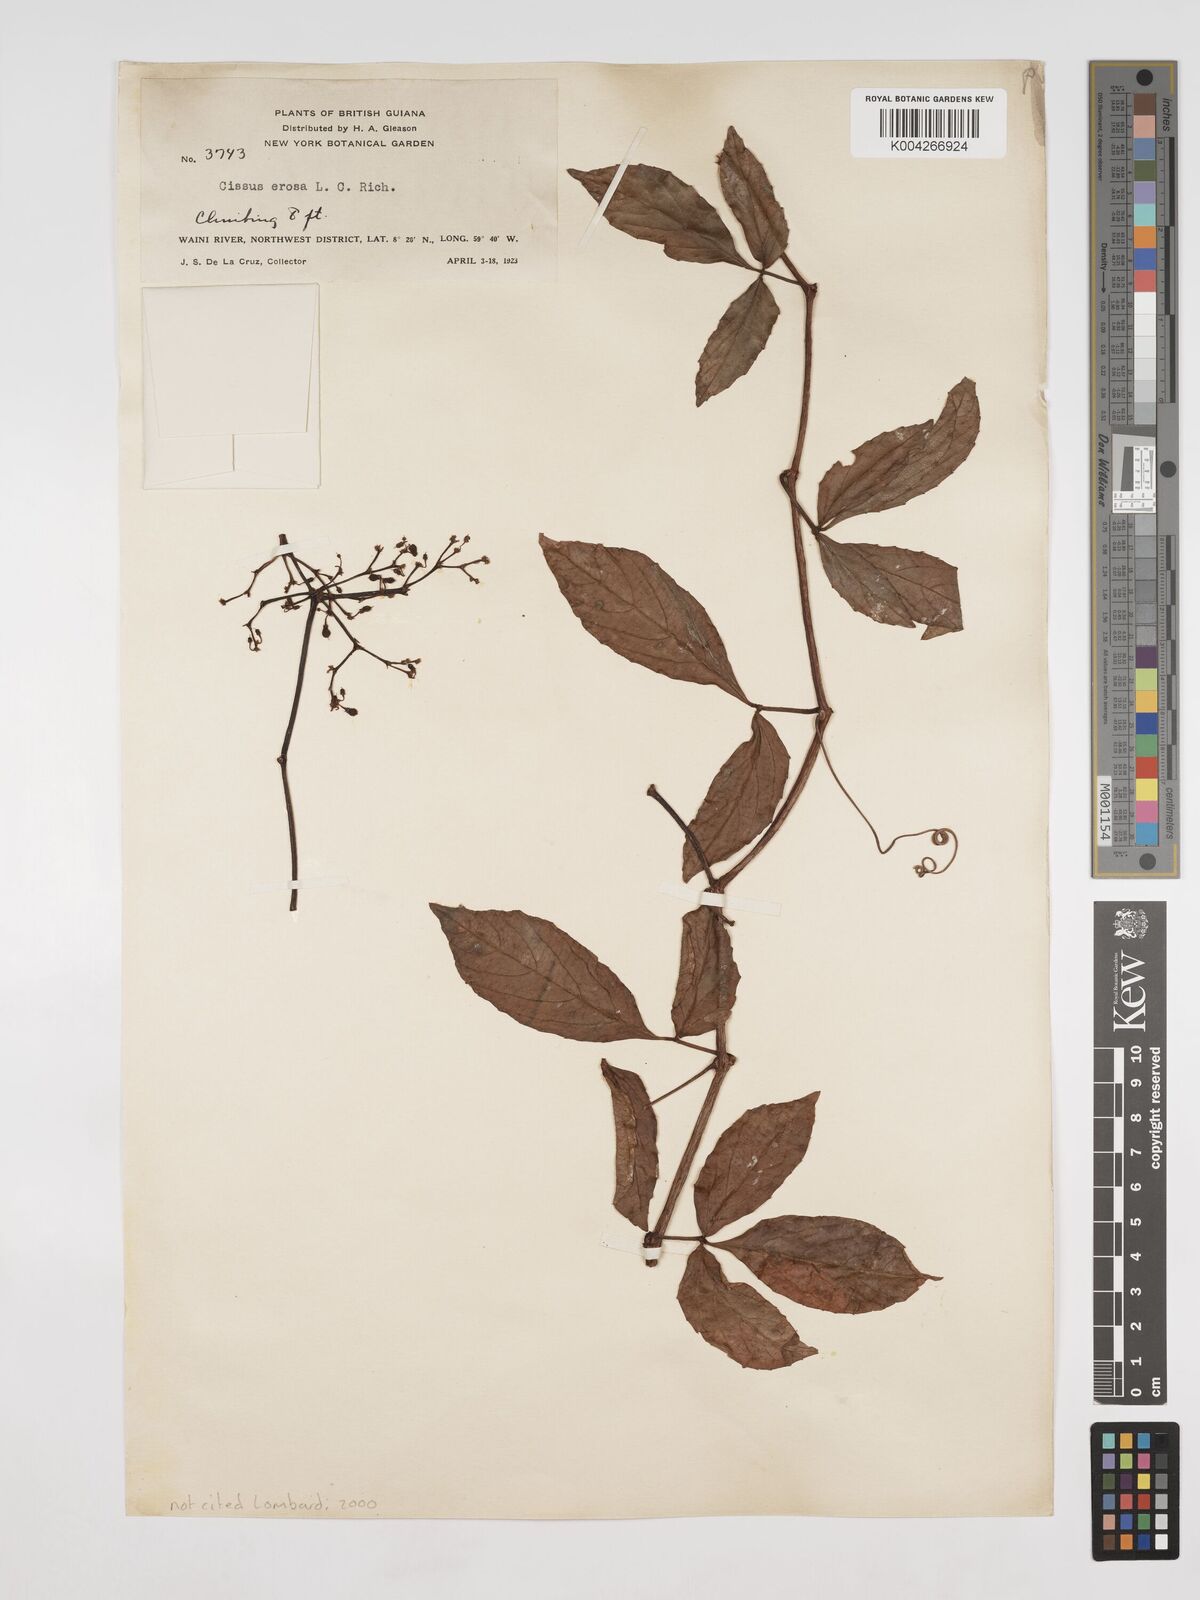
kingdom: Plantae
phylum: Tracheophyta
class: Magnoliopsida
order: Vitales
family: Vitaceae
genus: Cissus
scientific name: Cissus erosa
